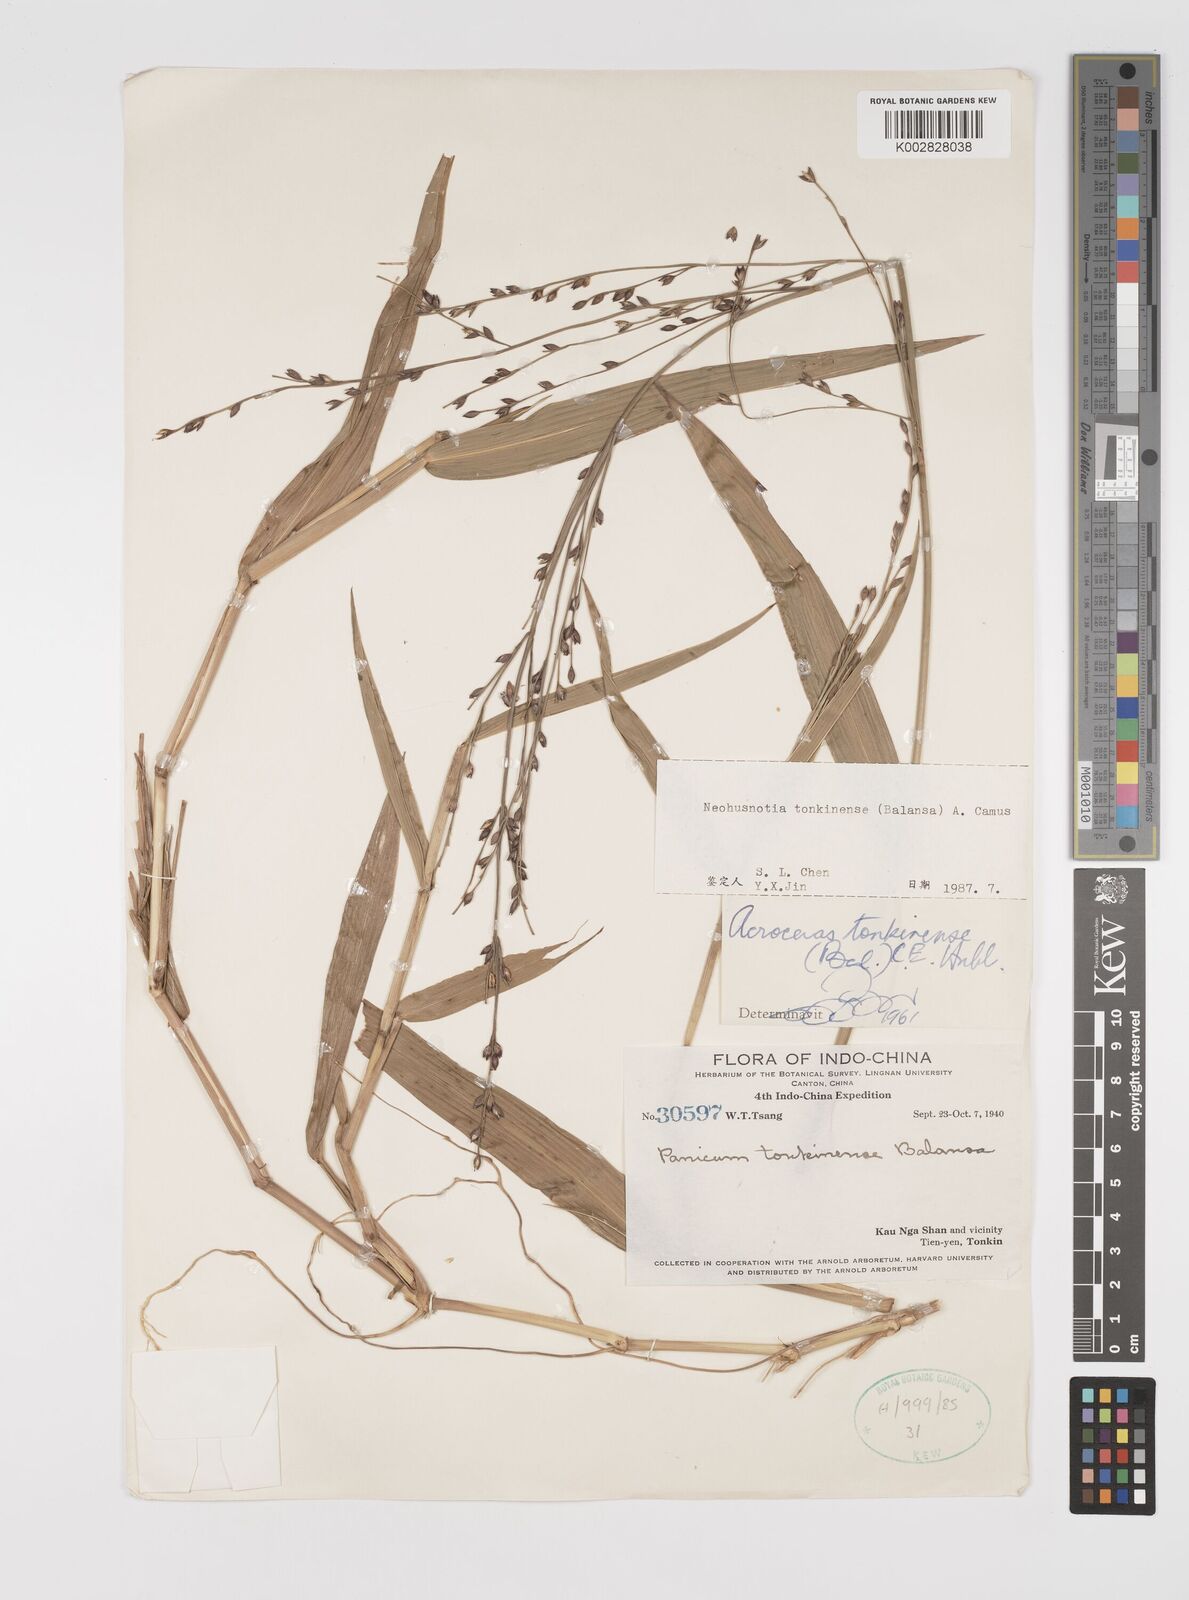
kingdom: Plantae
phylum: Tracheophyta
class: Liliopsida
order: Poales
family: Poaceae
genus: Acroceras
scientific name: Acroceras tonkinense
